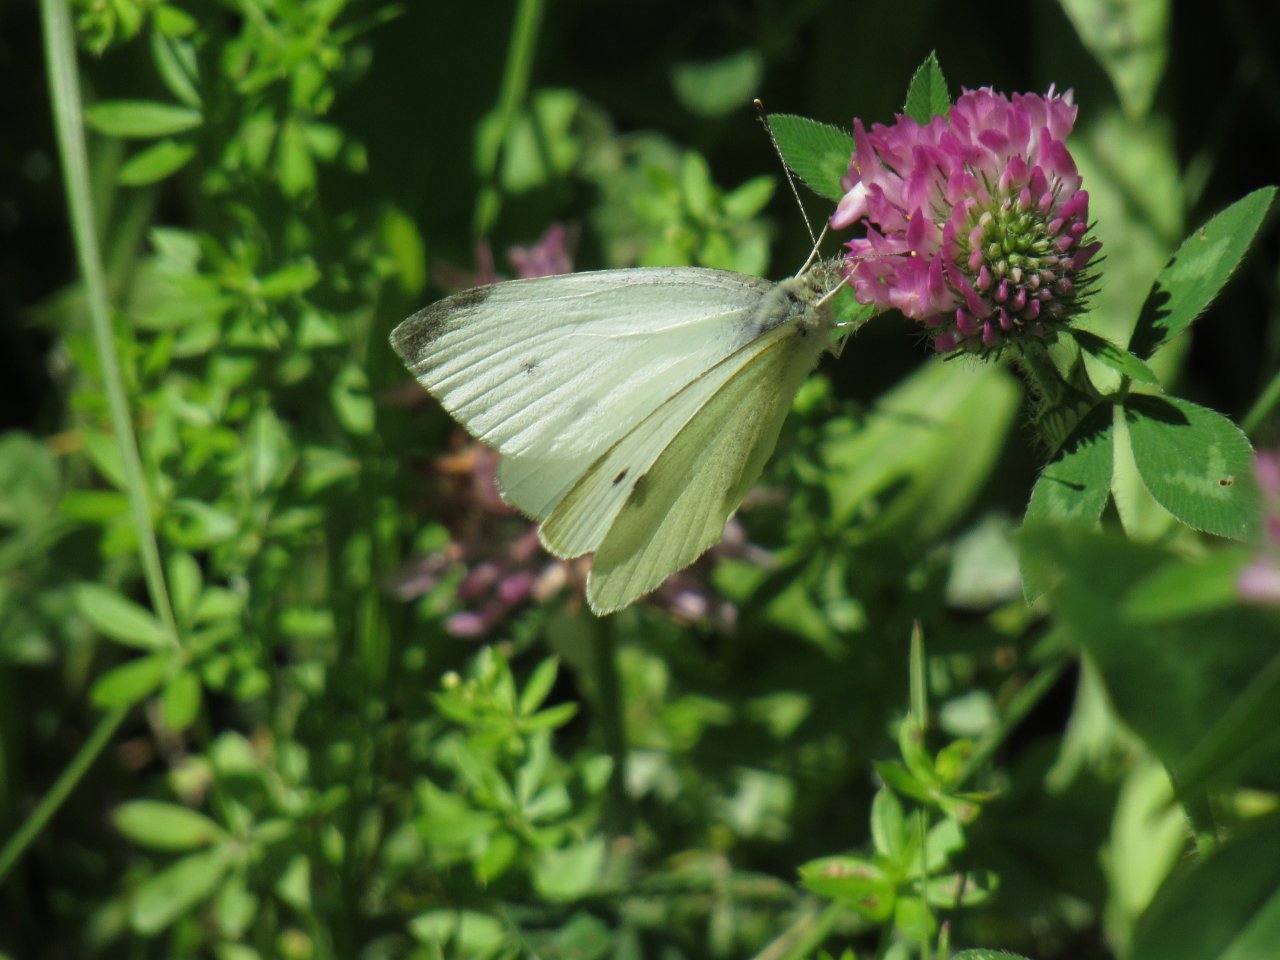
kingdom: Animalia
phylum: Arthropoda
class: Insecta
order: Lepidoptera
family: Pieridae
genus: Pieris
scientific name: Pieris rapae
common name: Cabbage White
